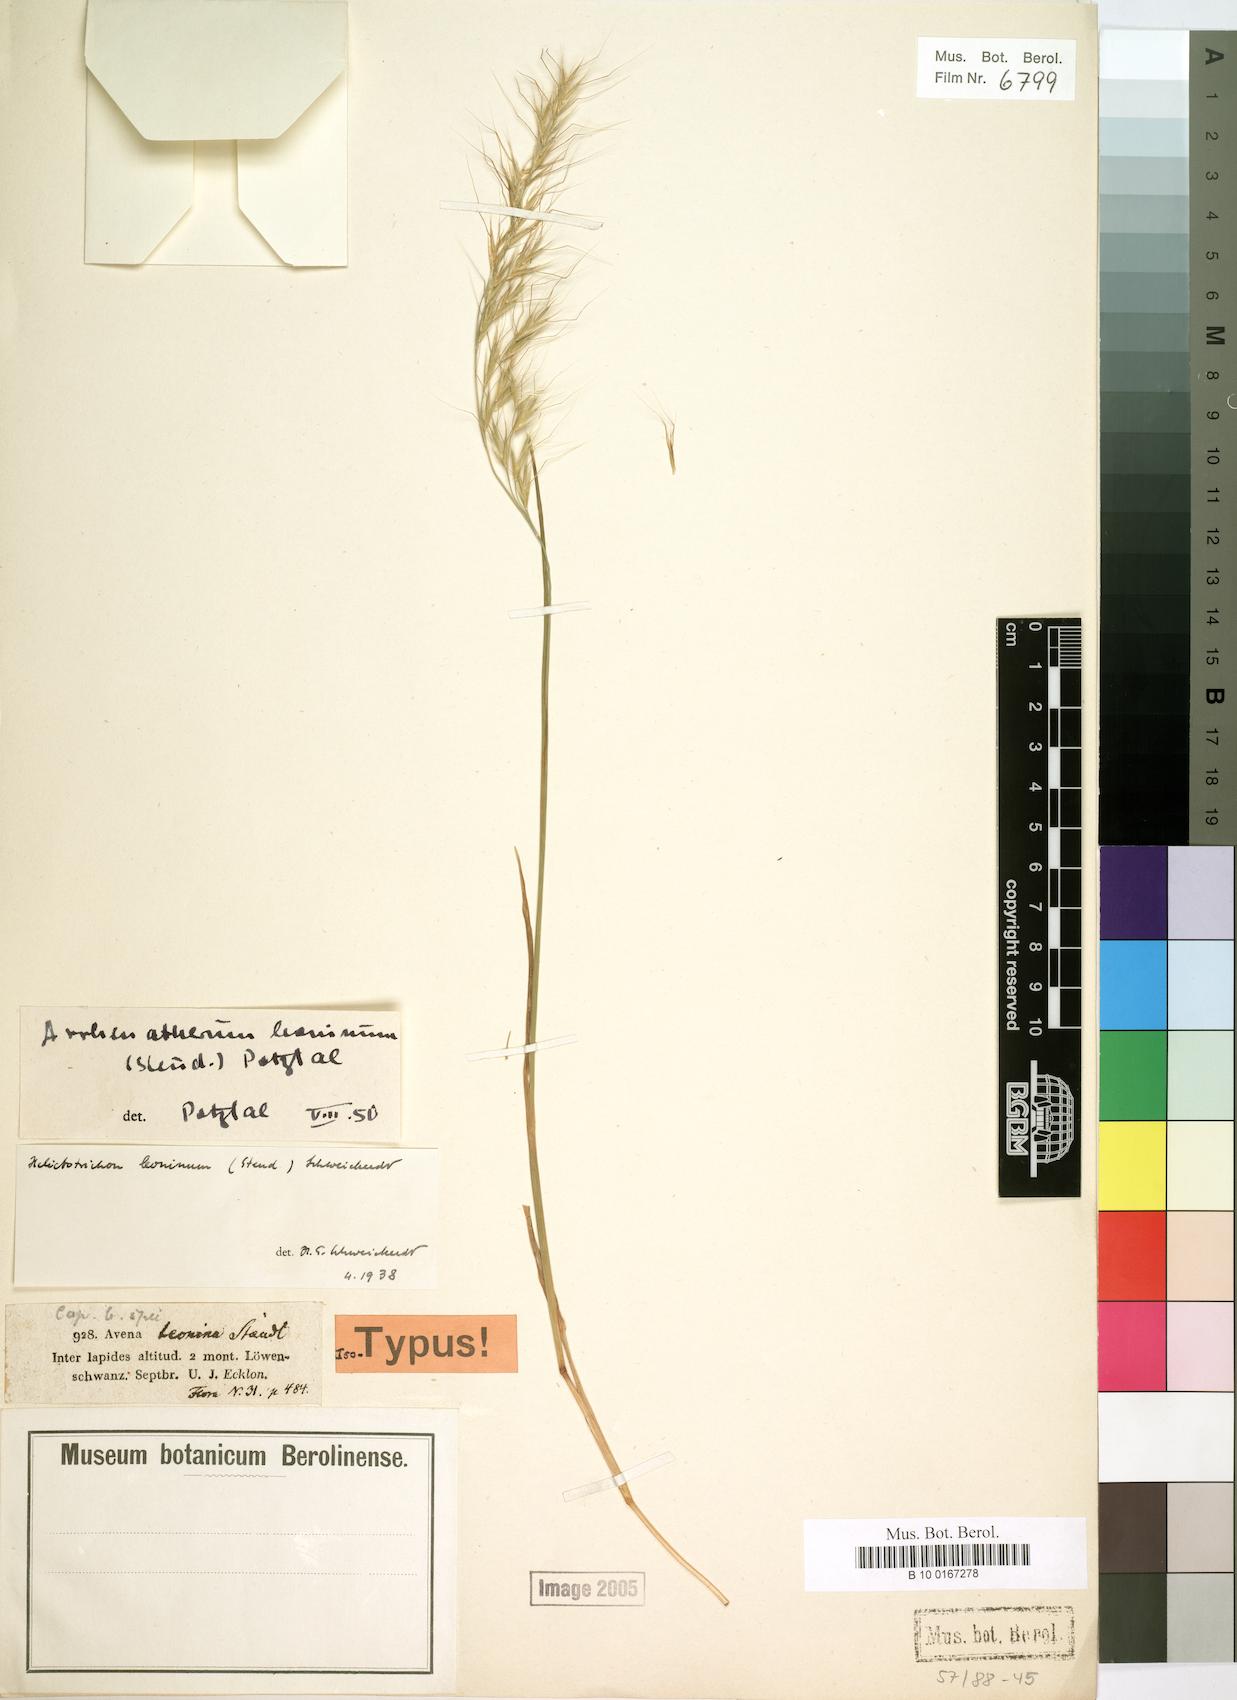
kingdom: Plantae
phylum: Tracheophyta
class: Liliopsida
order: Poales
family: Poaceae
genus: Trisetopsis
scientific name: Trisetopsis leonina
